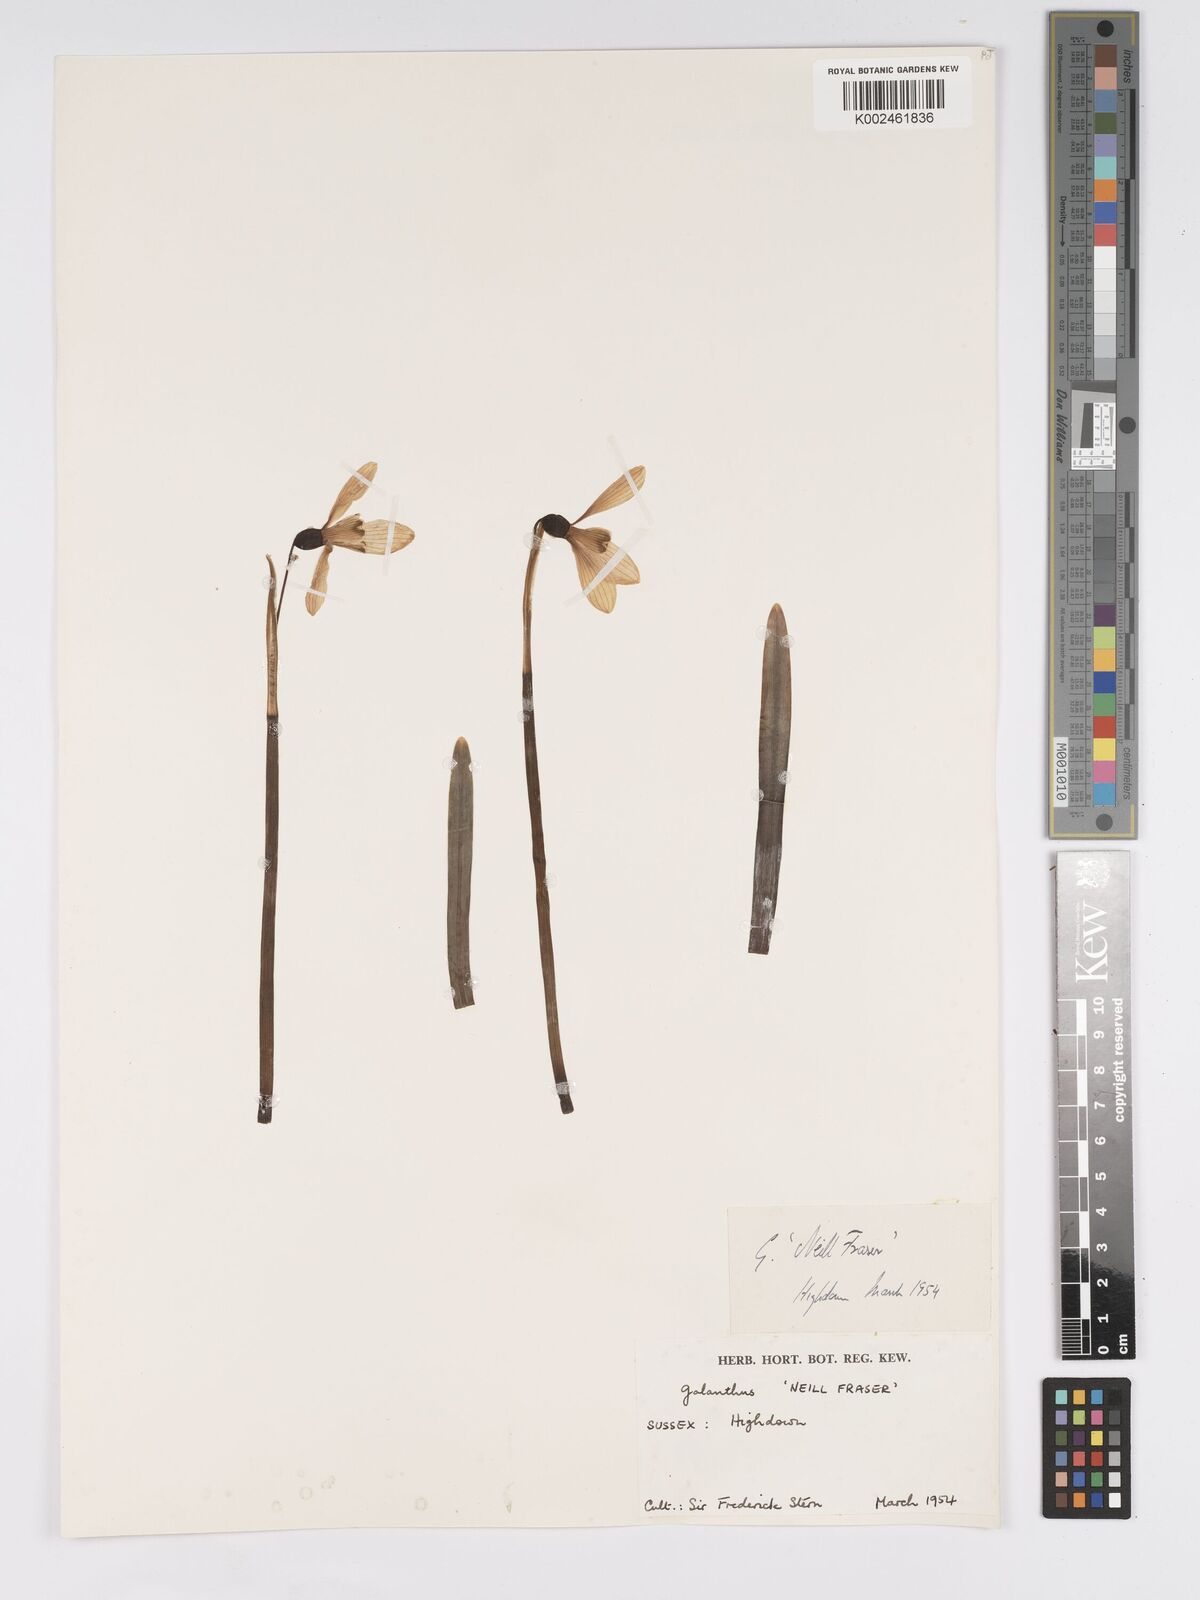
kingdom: Plantae
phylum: Tracheophyta
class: Liliopsida
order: Asparagales
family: Amaryllidaceae
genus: Galanthus
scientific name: Galanthus
